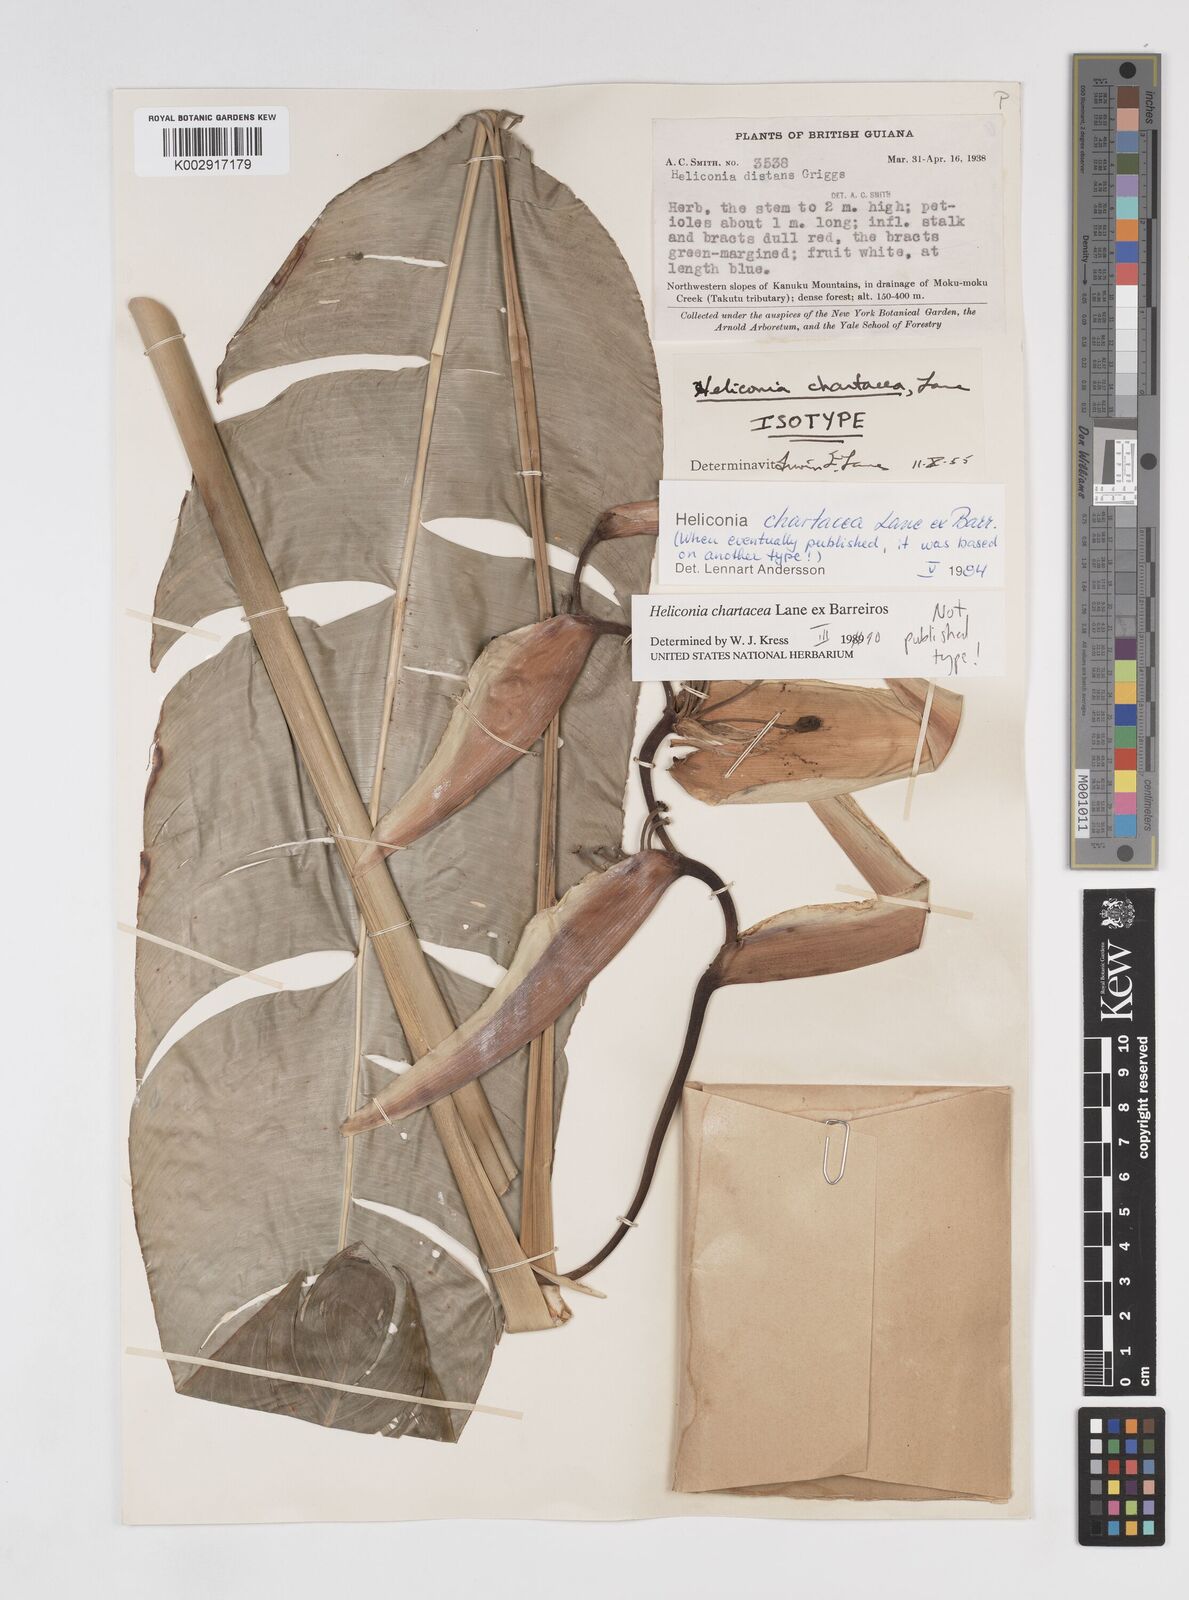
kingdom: Plantae
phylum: Tracheophyta
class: Liliopsida
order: Zingiberales
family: Heliconiaceae
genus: Heliconia
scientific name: Heliconia chartacea
